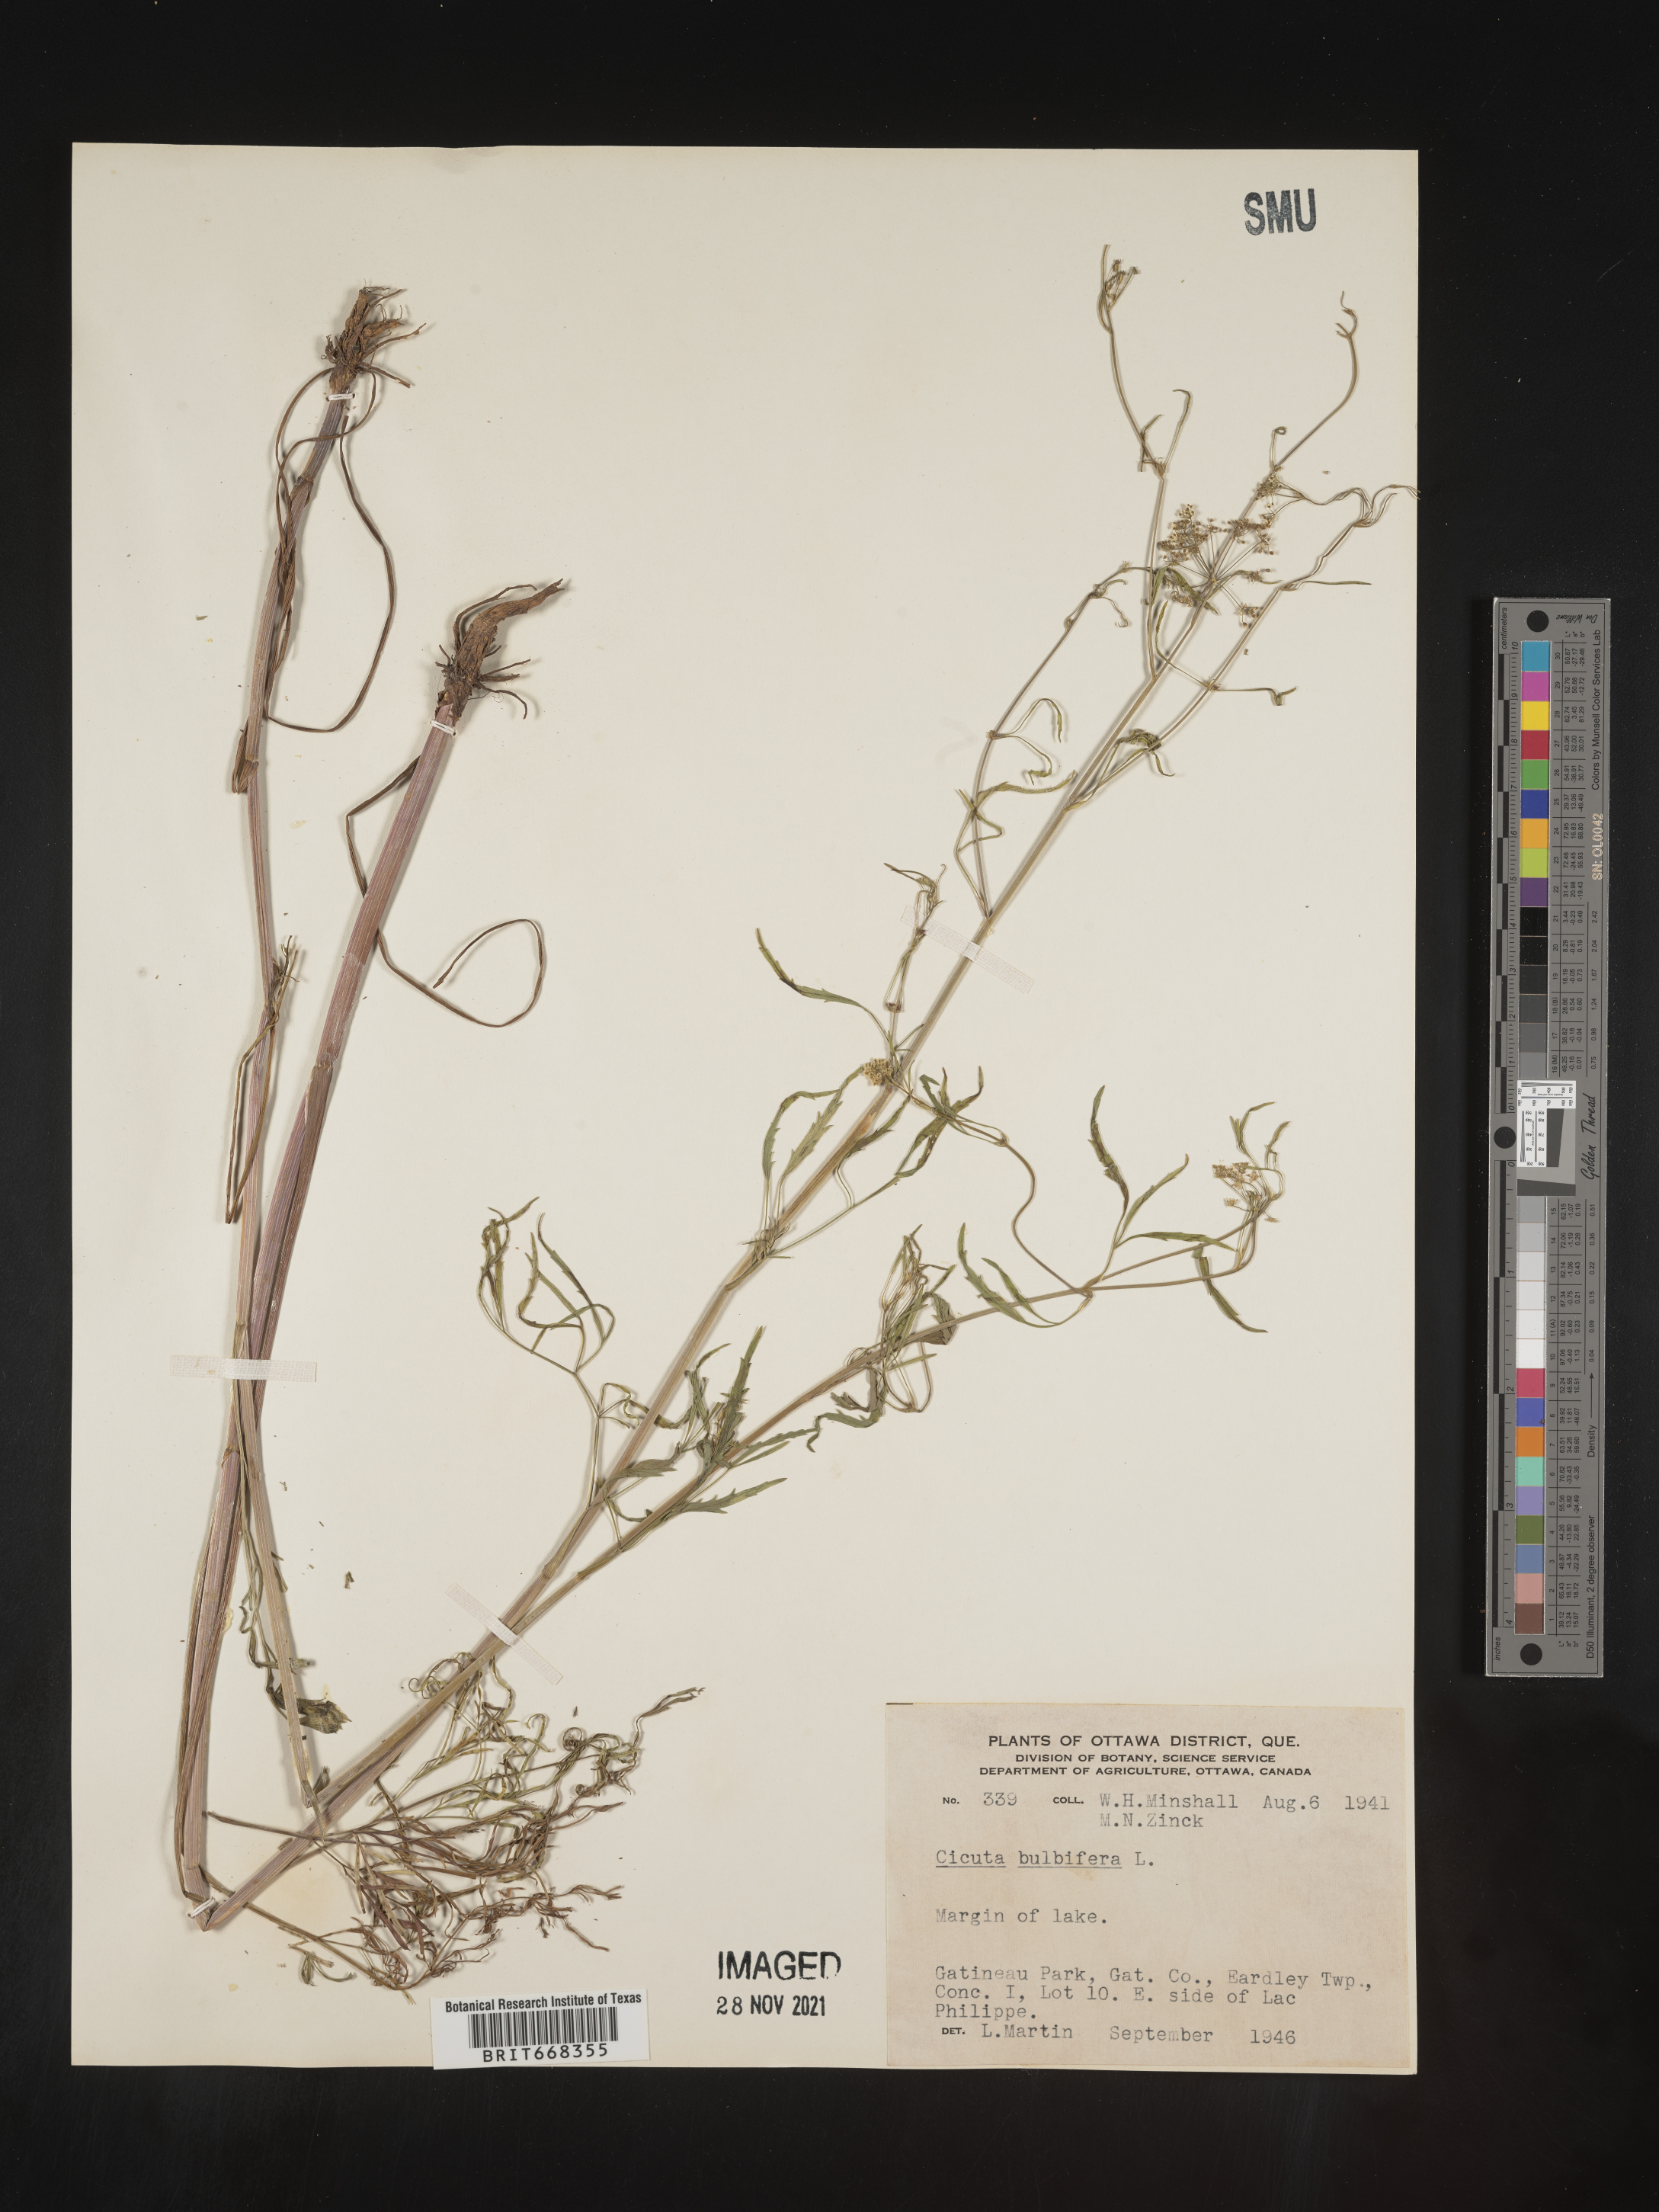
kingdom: Plantae
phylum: Tracheophyta
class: Magnoliopsida
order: Apiales
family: Apiaceae
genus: Cicuta
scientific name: Cicuta
